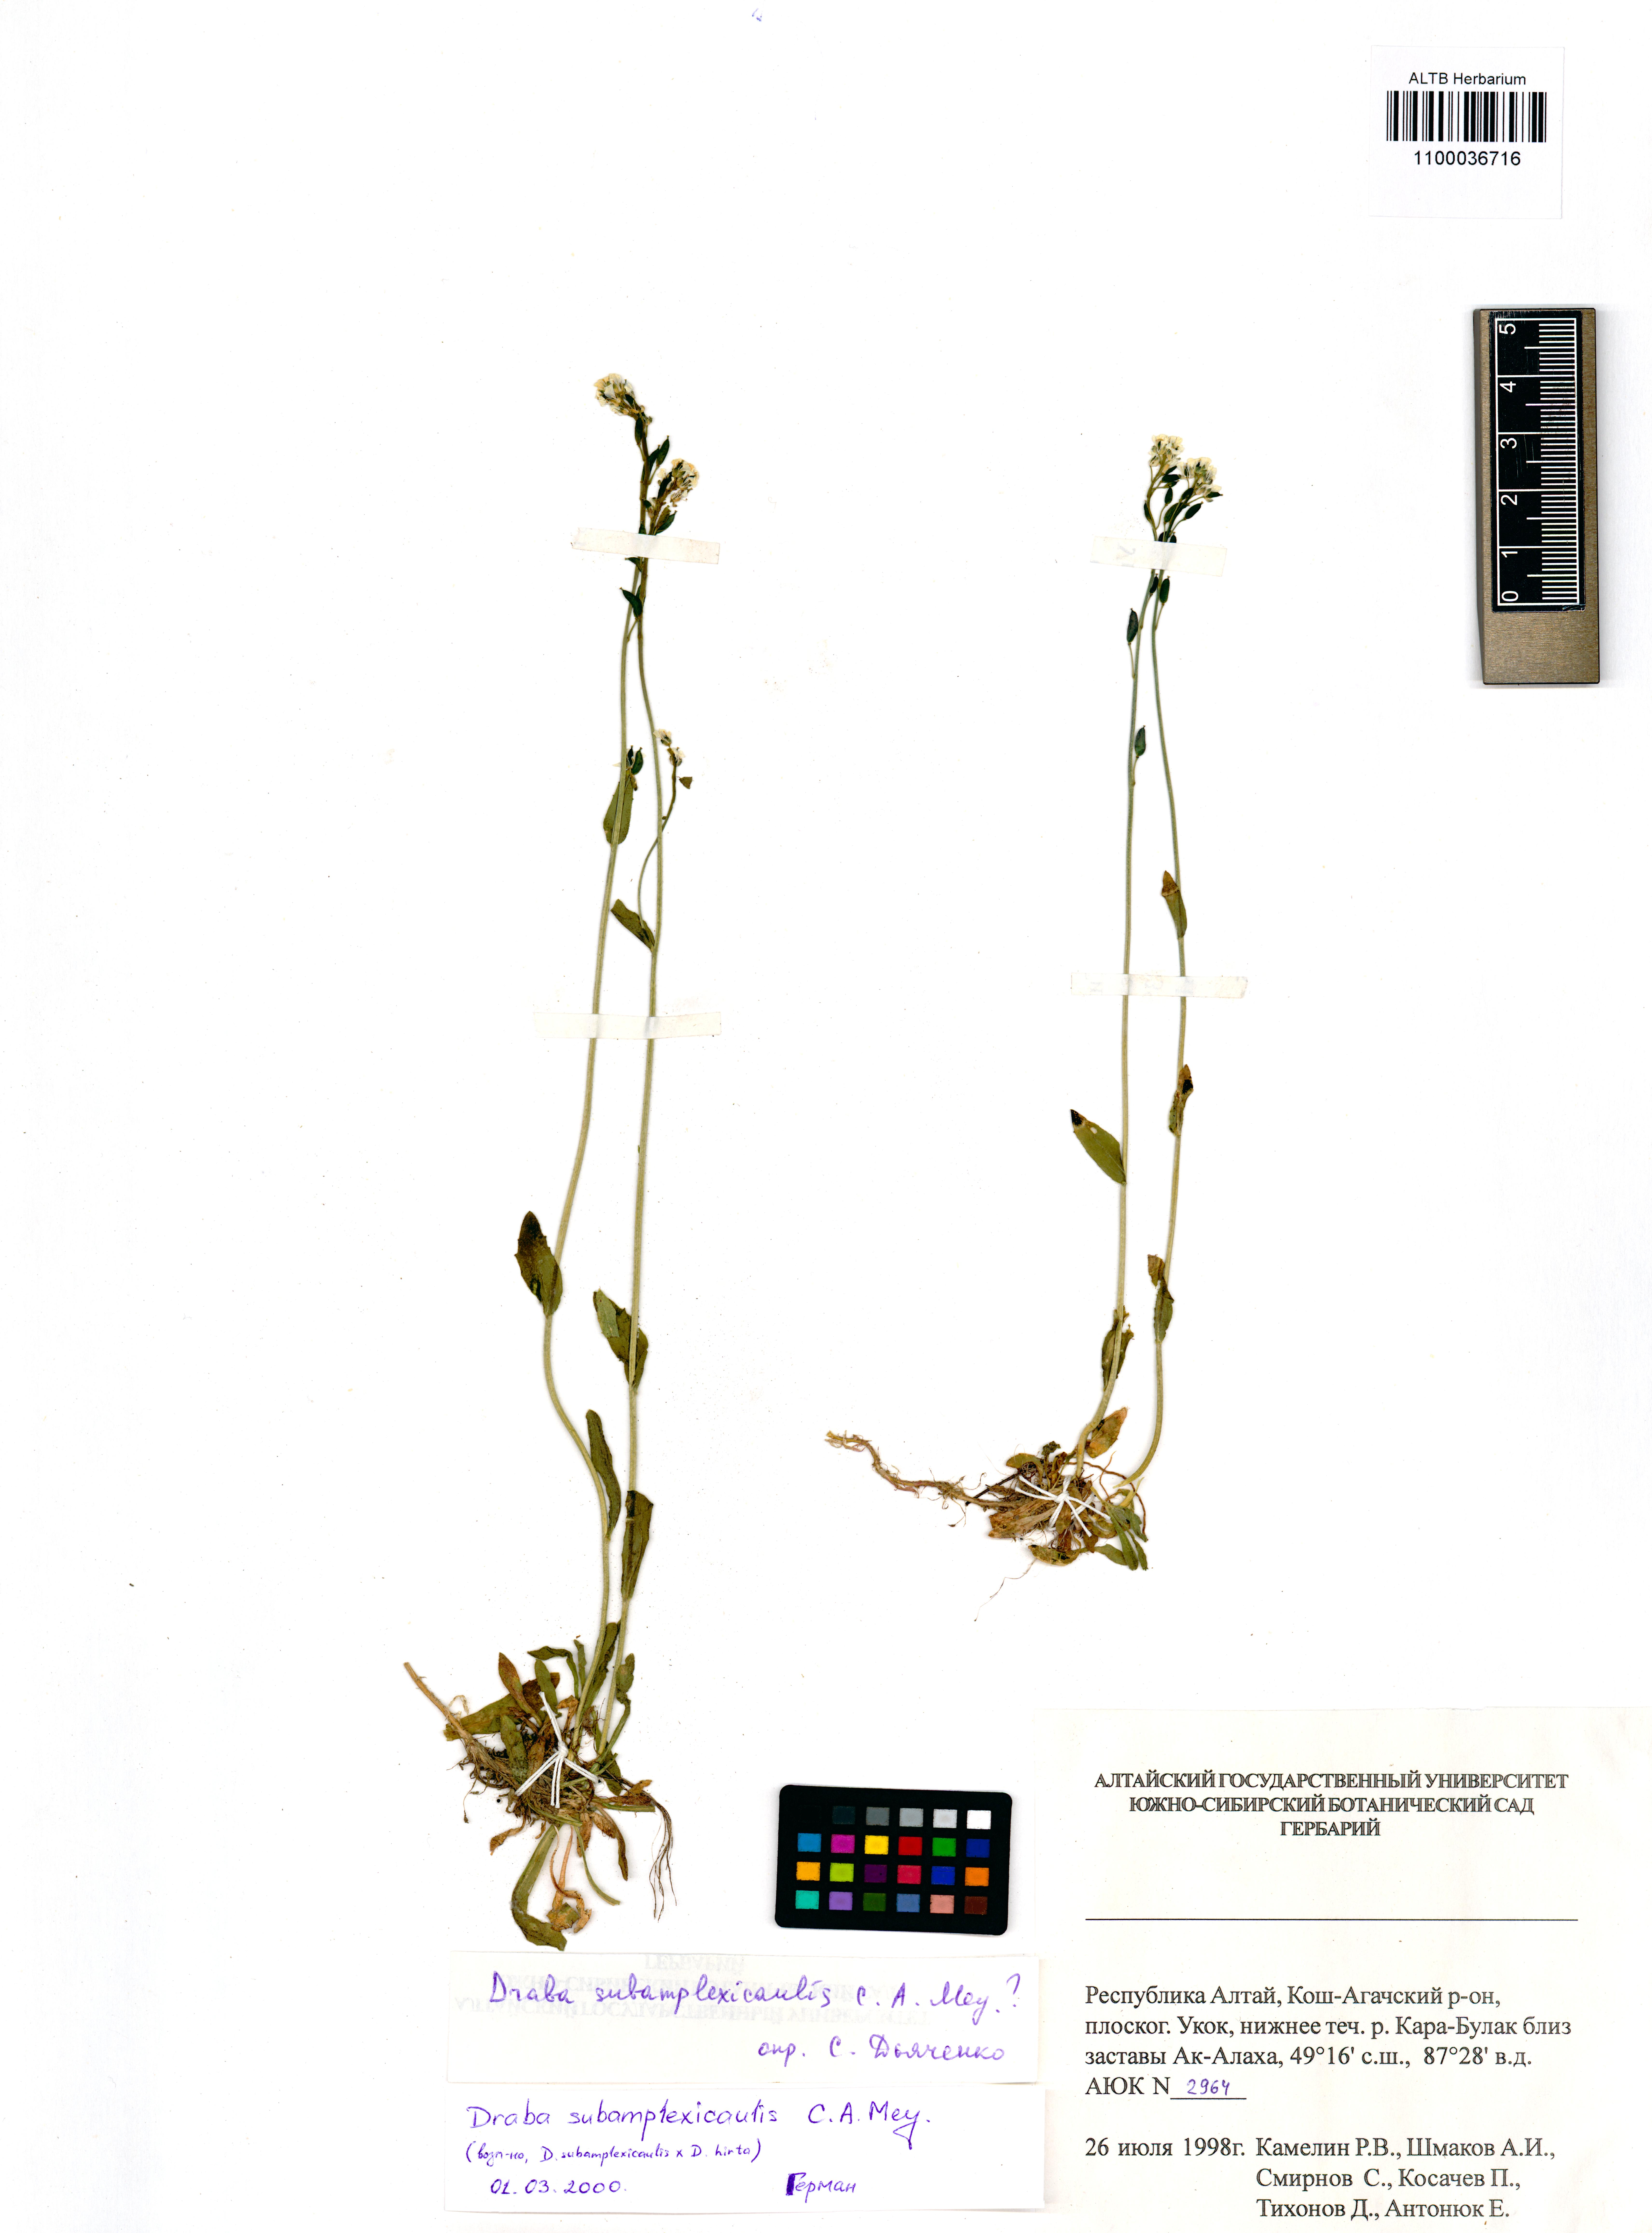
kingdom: Plantae
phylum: Tracheophyta
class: Magnoliopsida
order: Brassicales
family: Brassicaceae
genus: Draba
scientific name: Draba subamplexicaulis
